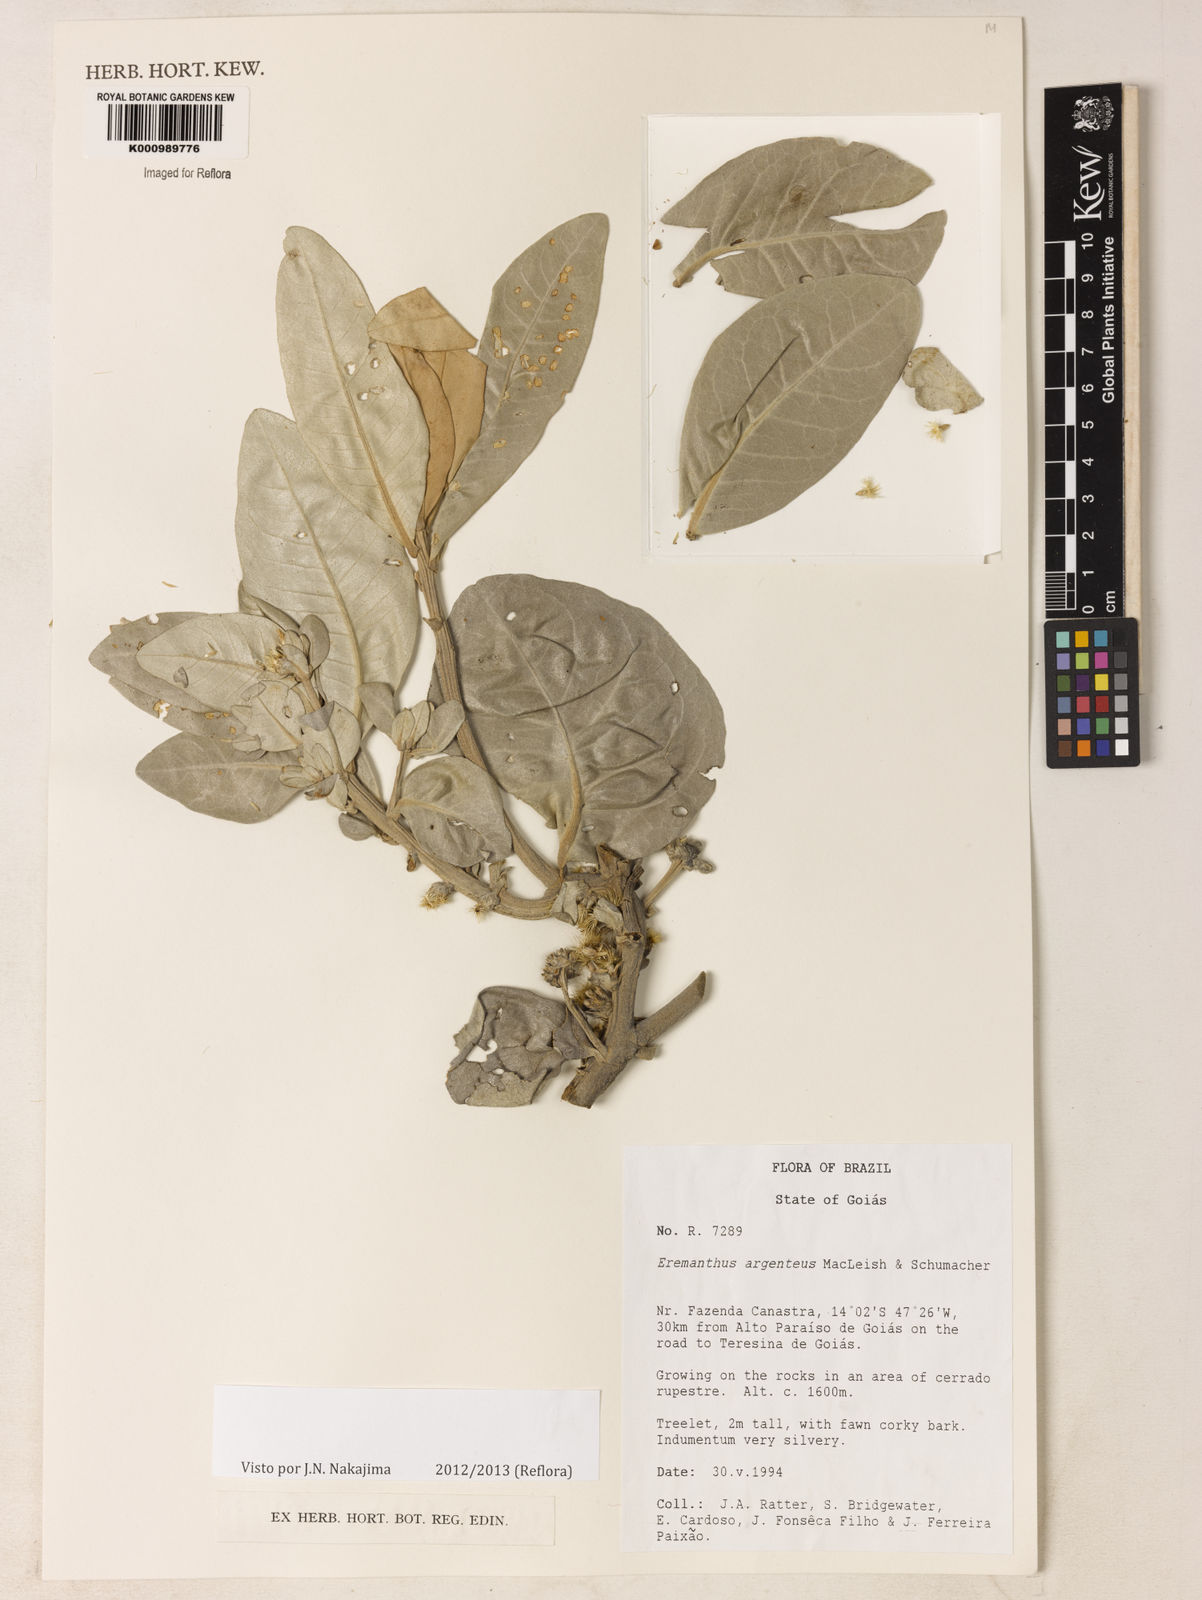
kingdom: Plantae
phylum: Tracheophyta
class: Magnoliopsida
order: Asterales
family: Asteraceae
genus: Eremanthus
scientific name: Eremanthus argenteus
